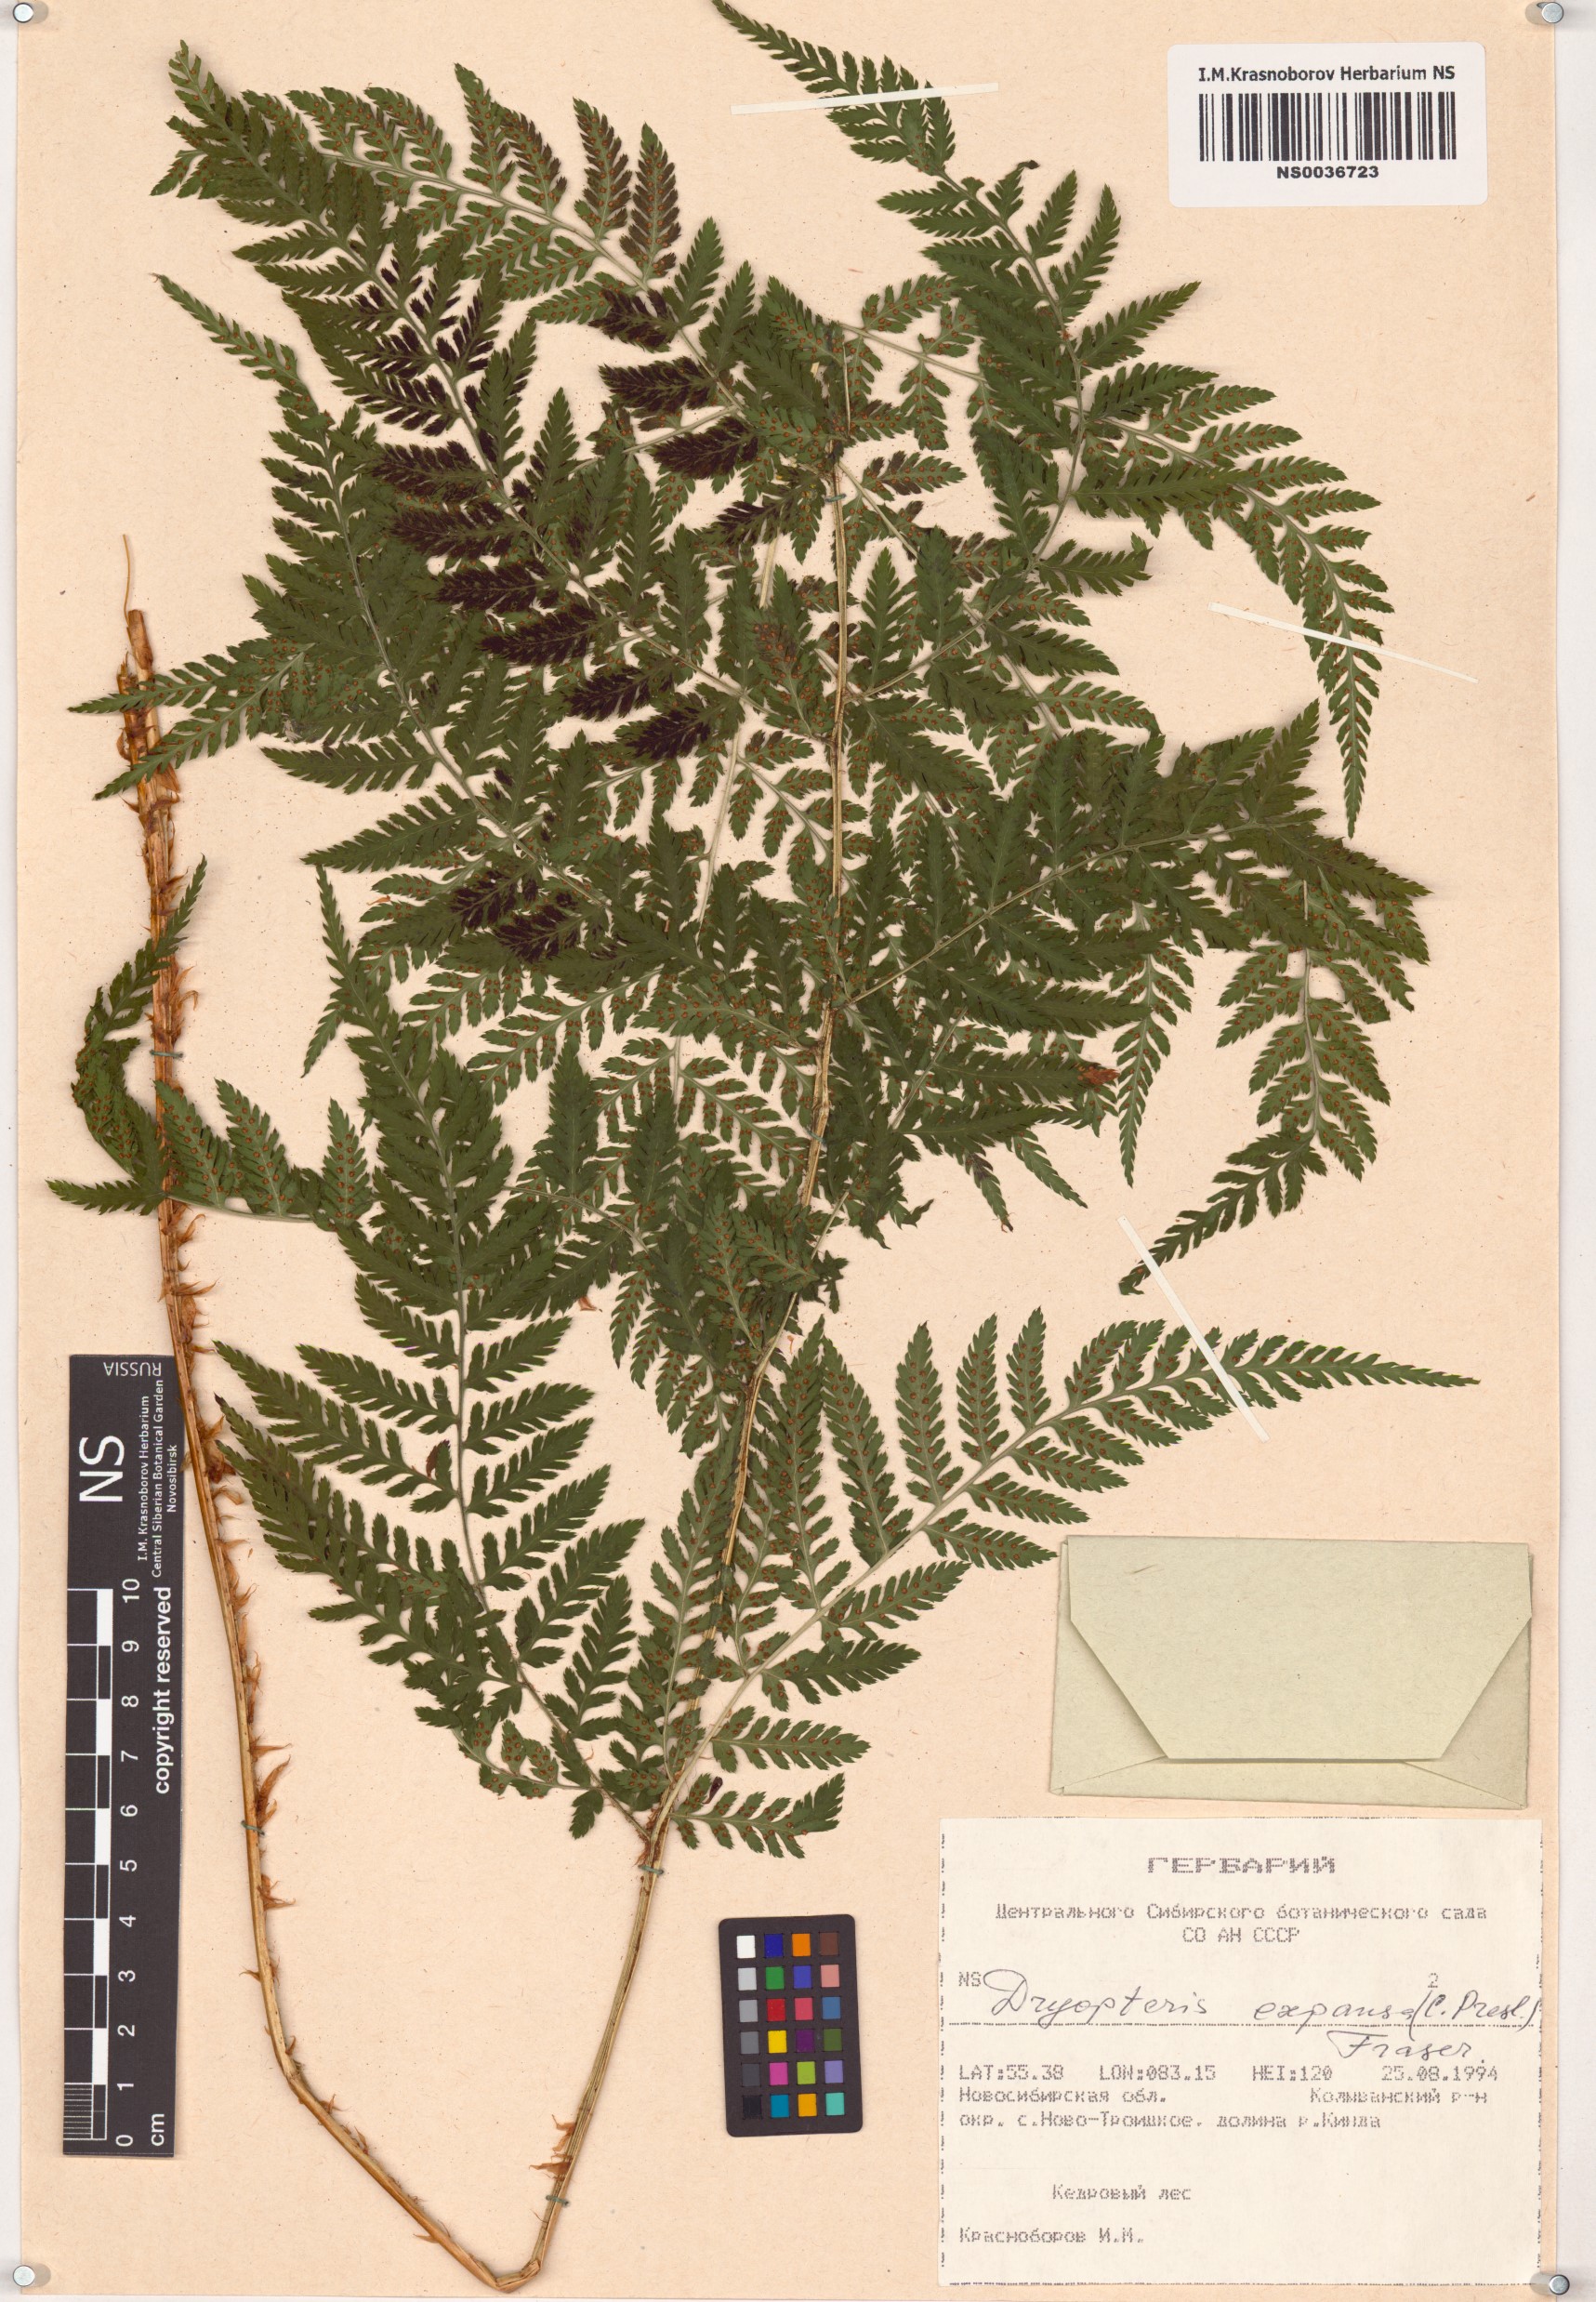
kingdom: Plantae
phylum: Tracheophyta
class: Polypodiopsida
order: Polypodiales
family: Dryopteridaceae
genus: Dryopteris
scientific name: Dryopteris expansa
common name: Northern buckler fern
